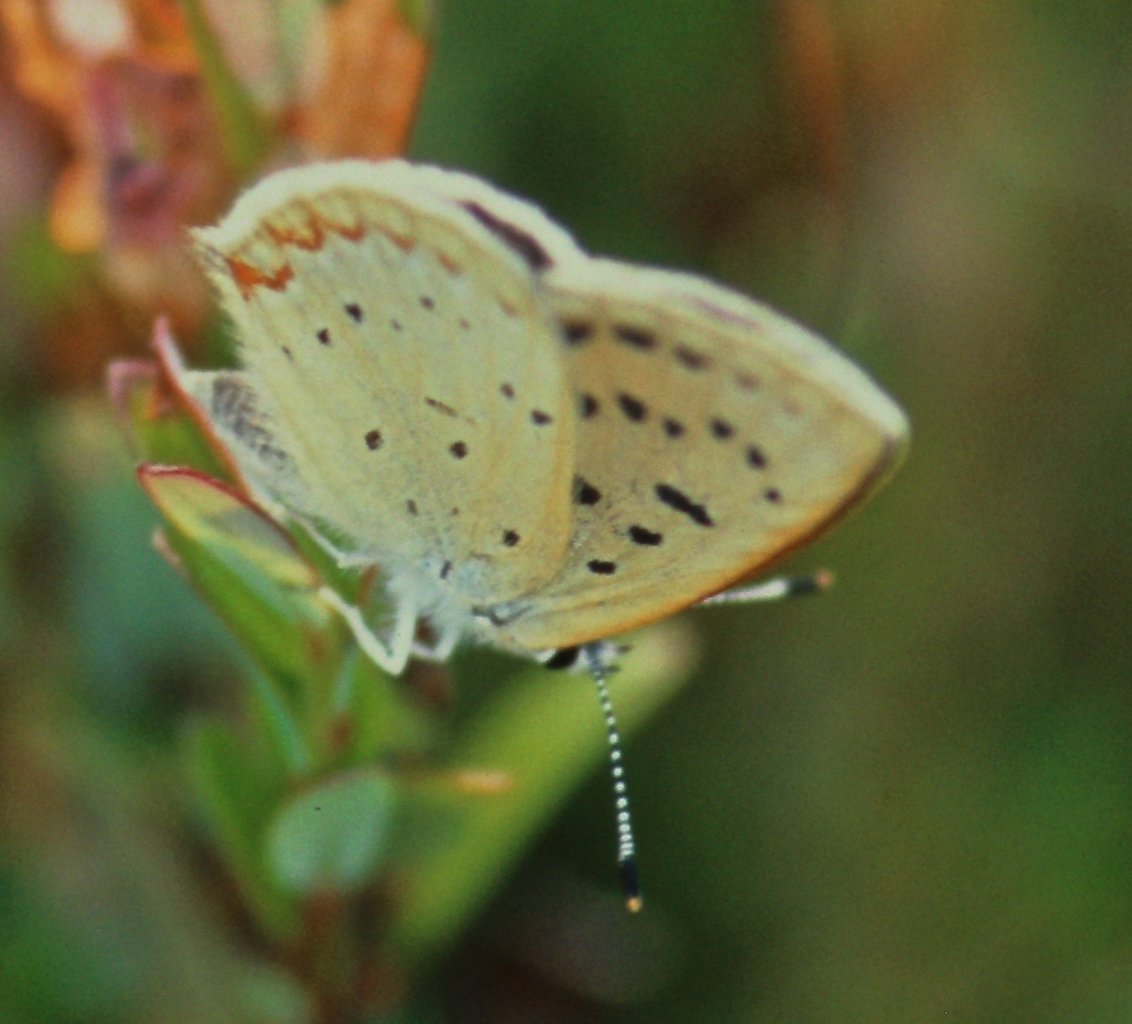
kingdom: Animalia
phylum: Arthropoda
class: Insecta
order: Lepidoptera
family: Sesiidae
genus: Sesia
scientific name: Sesia Lycaena epixanthe
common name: Bog Copper
